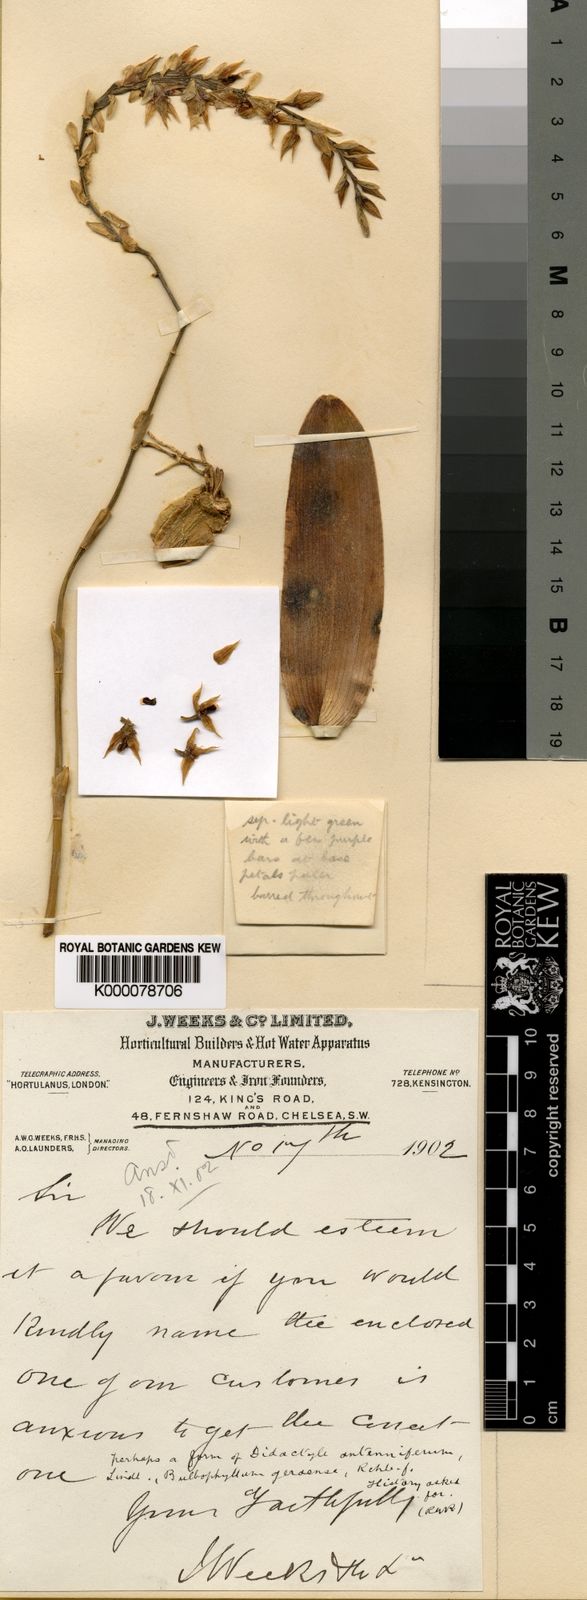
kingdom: Plantae
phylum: Tracheophyta
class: Liliopsida
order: Asparagales
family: Orchidaceae
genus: Bulbophyllum
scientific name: Bulbophyllum geraense
